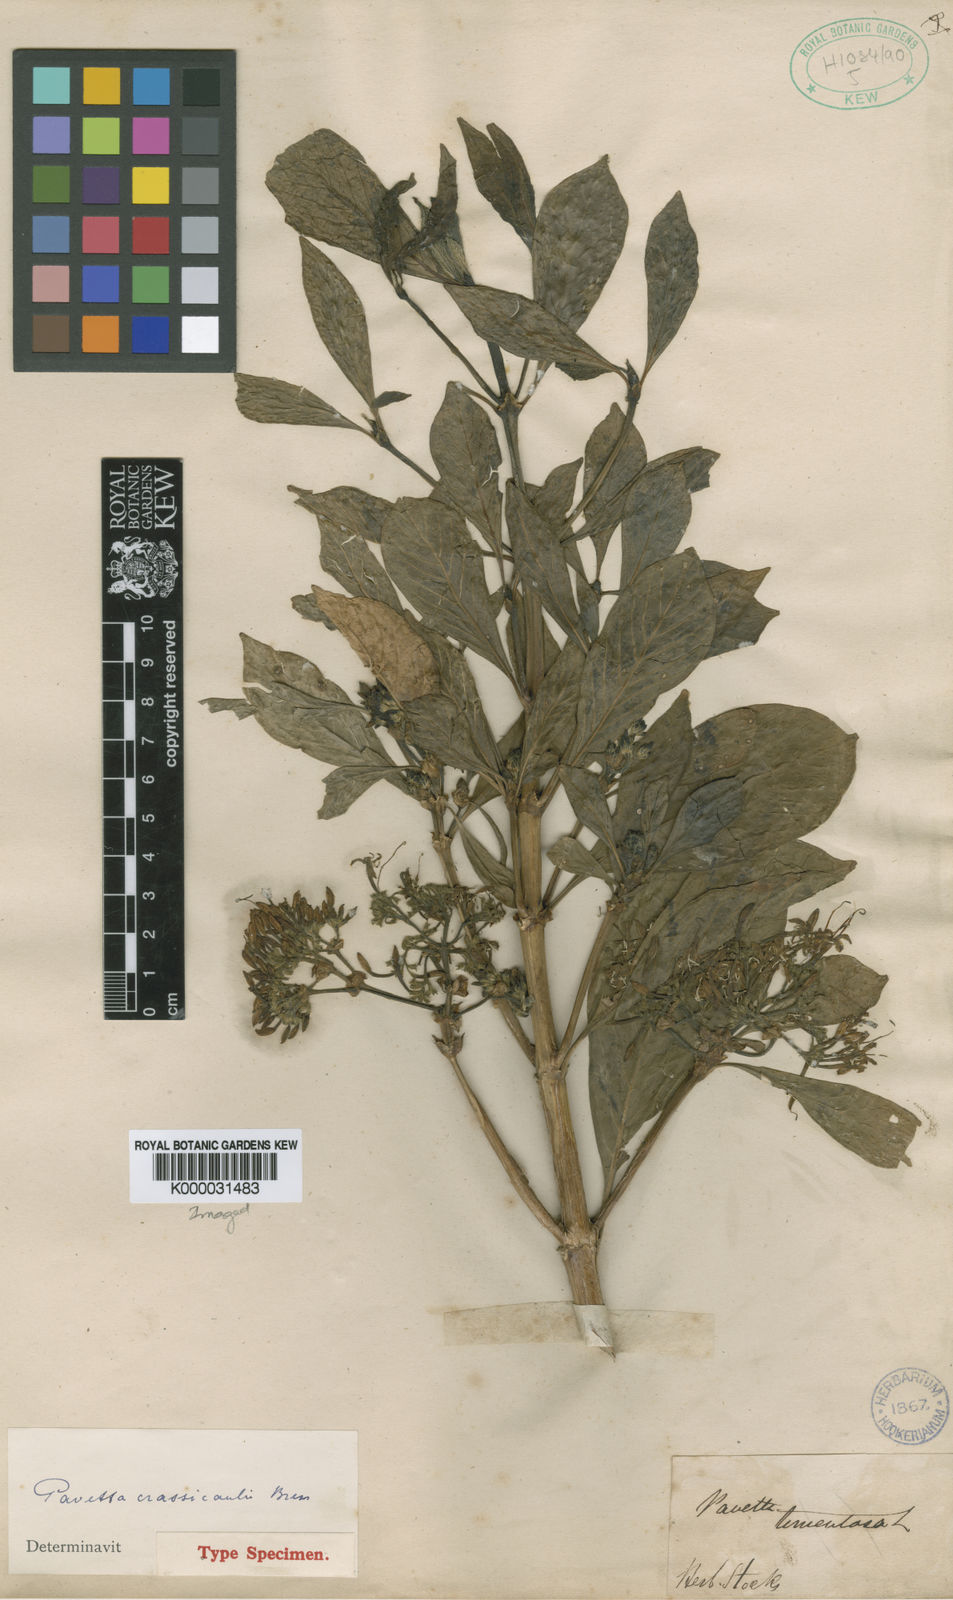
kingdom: Plantae
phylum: Tracheophyta
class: Magnoliopsida
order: Gentianales
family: Rubiaceae
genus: Pavetta
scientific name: Pavetta crassicaulis
